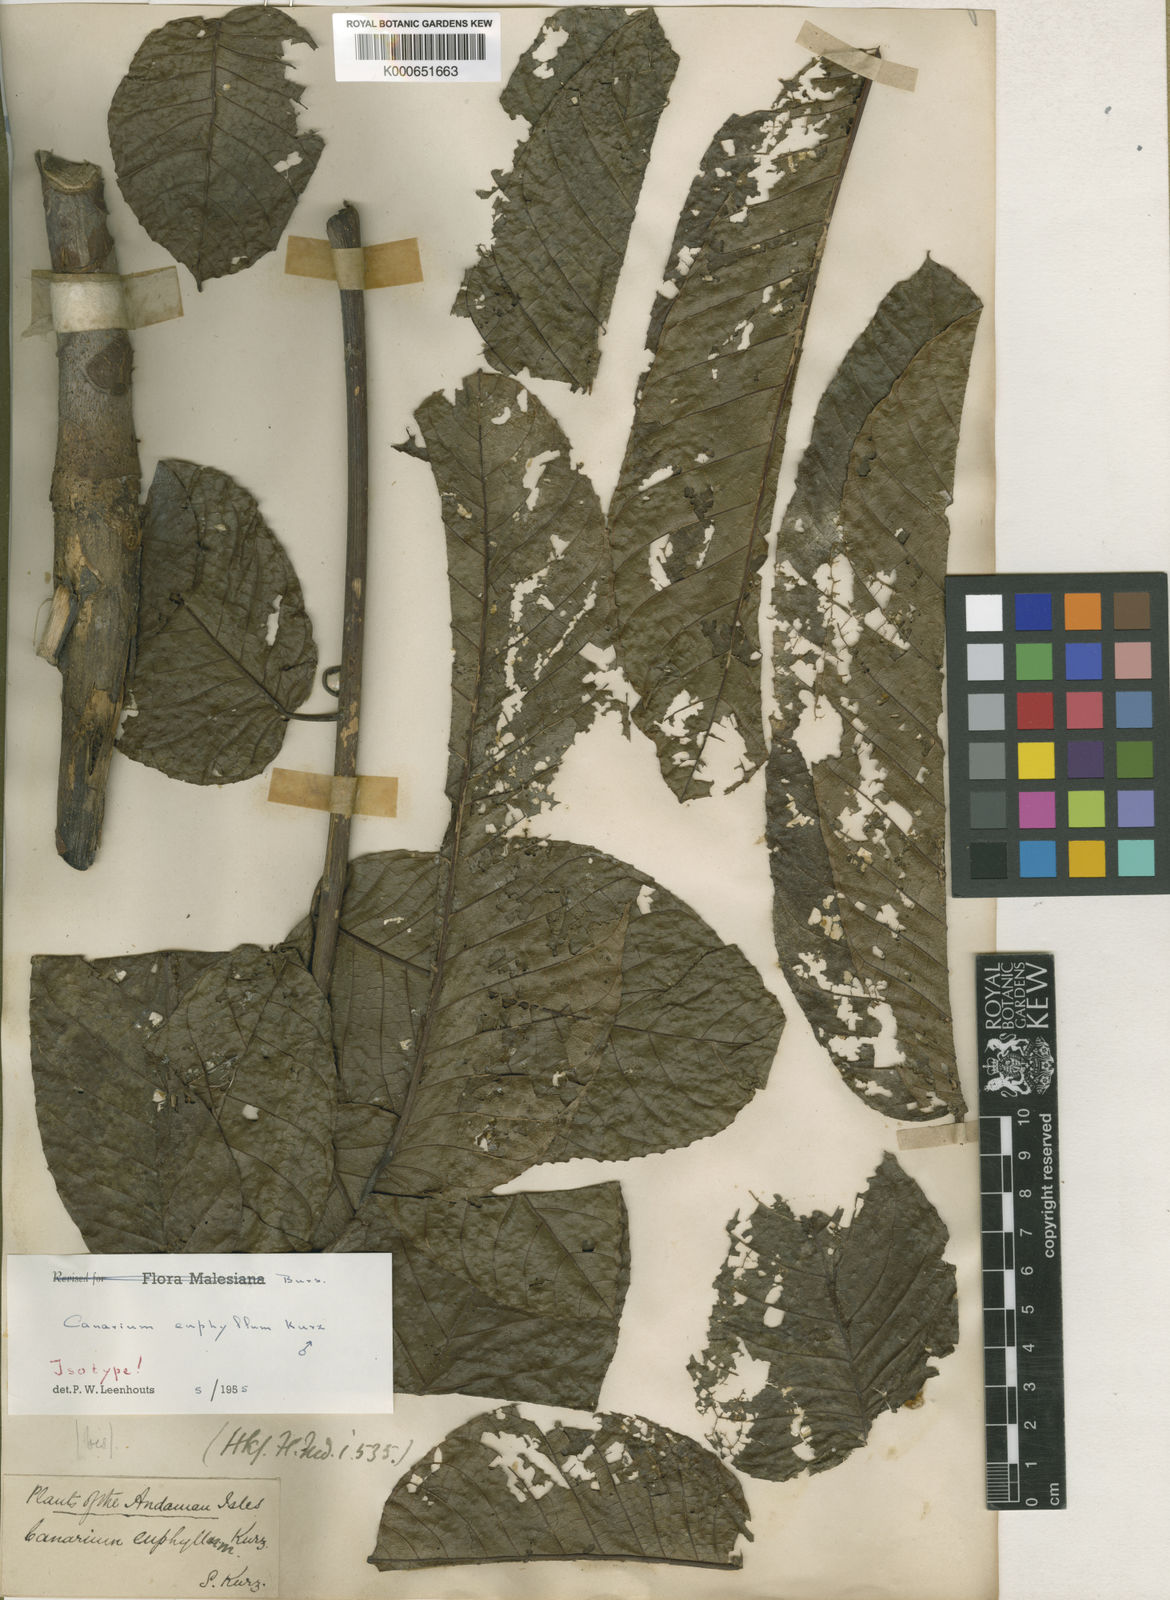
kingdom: Plantae
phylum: Tracheophyta
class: Magnoliopsida
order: Sapindales
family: Burseraceae
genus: Canarium
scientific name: Canarium euphyllum
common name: White dhup
